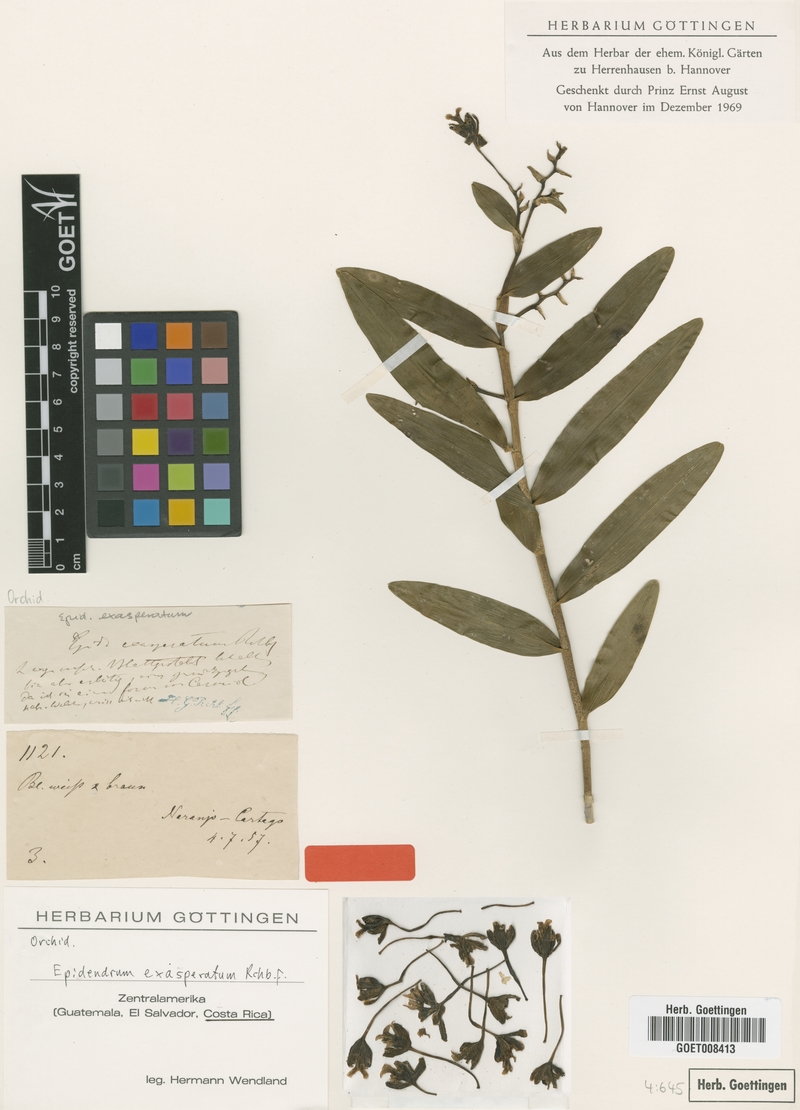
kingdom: Plantae
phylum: Tracheophyta
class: Liliopsida
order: Asparagales
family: Orchidaceae
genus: Epidendrum
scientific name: Epidendrum exasperatum
